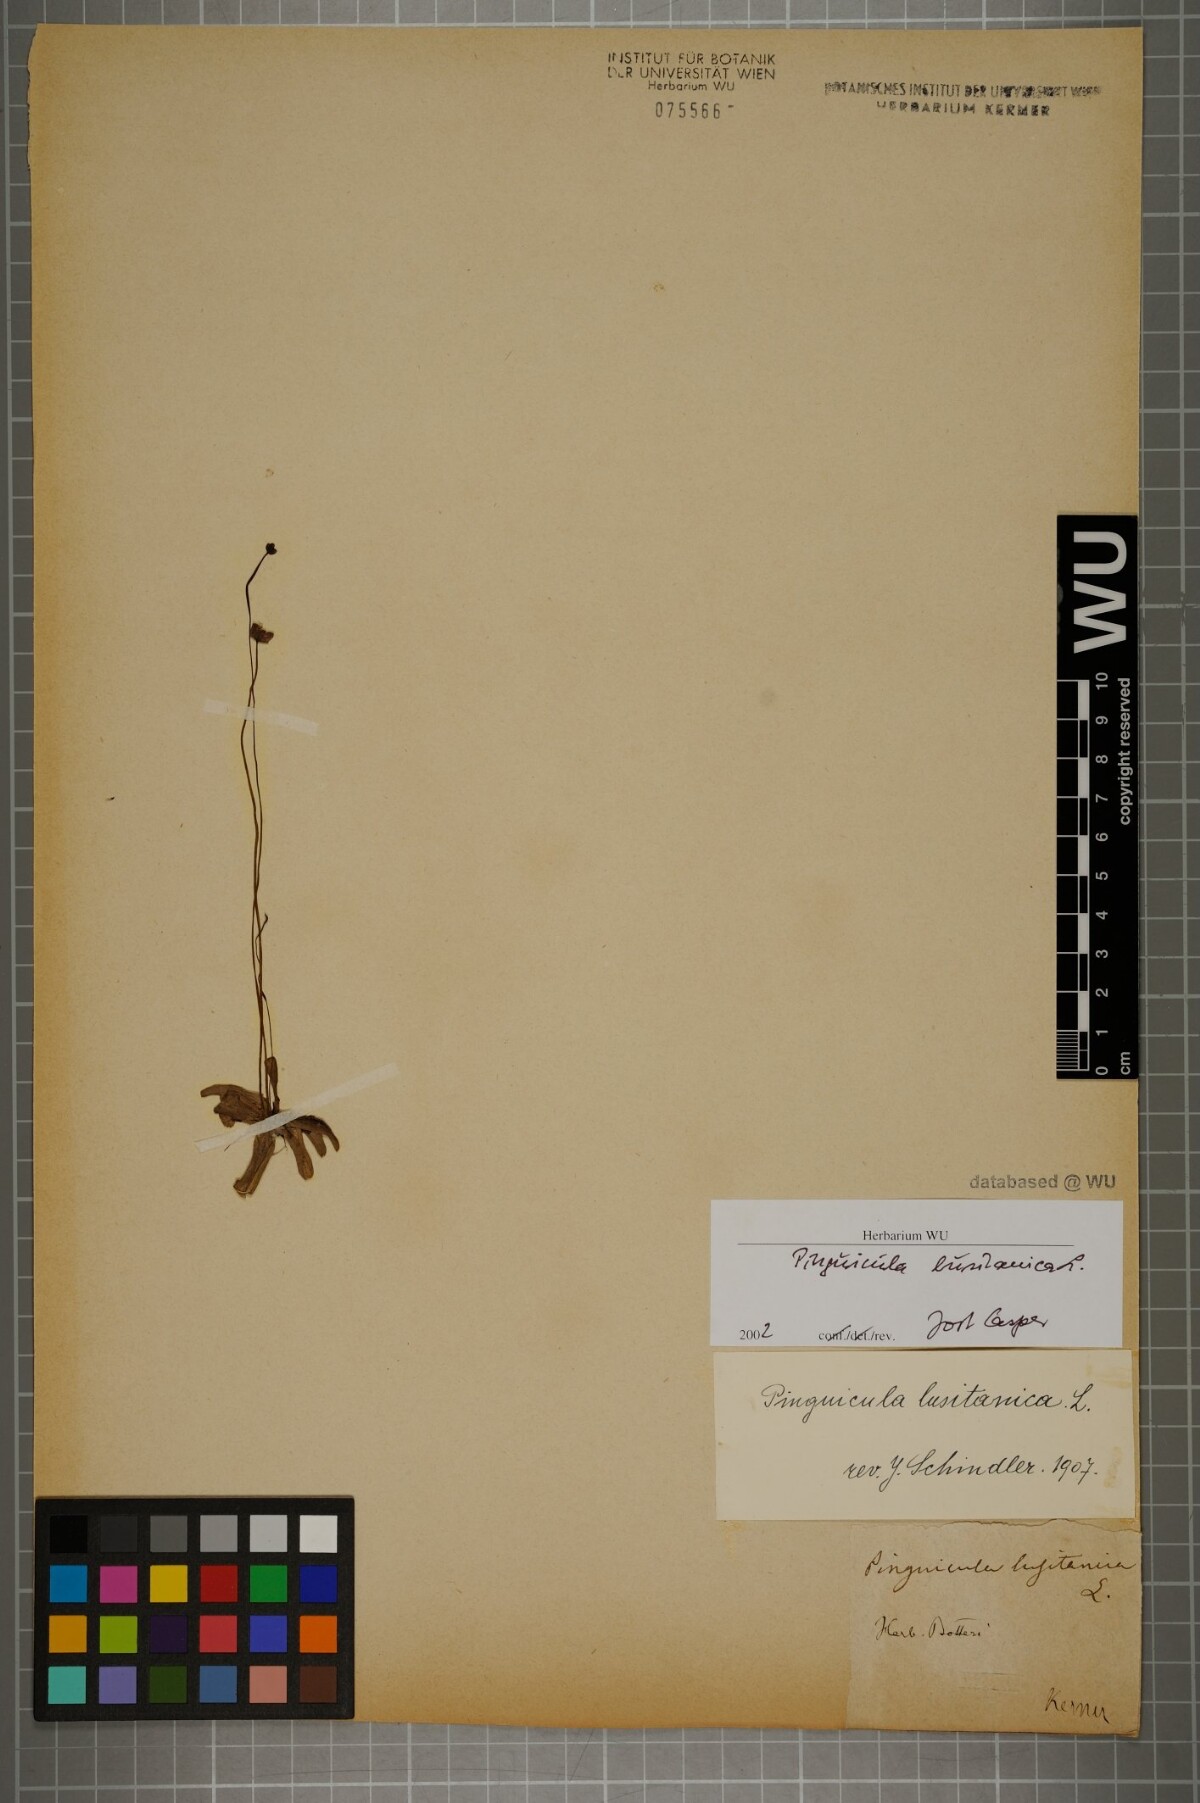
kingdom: Plantae
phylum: Tracheophyta
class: Magnoliopsida
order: Lamiales
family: Lentibulariaceae
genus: Pinguicula
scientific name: Pinguicula lusitanica
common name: Pale butterwort
